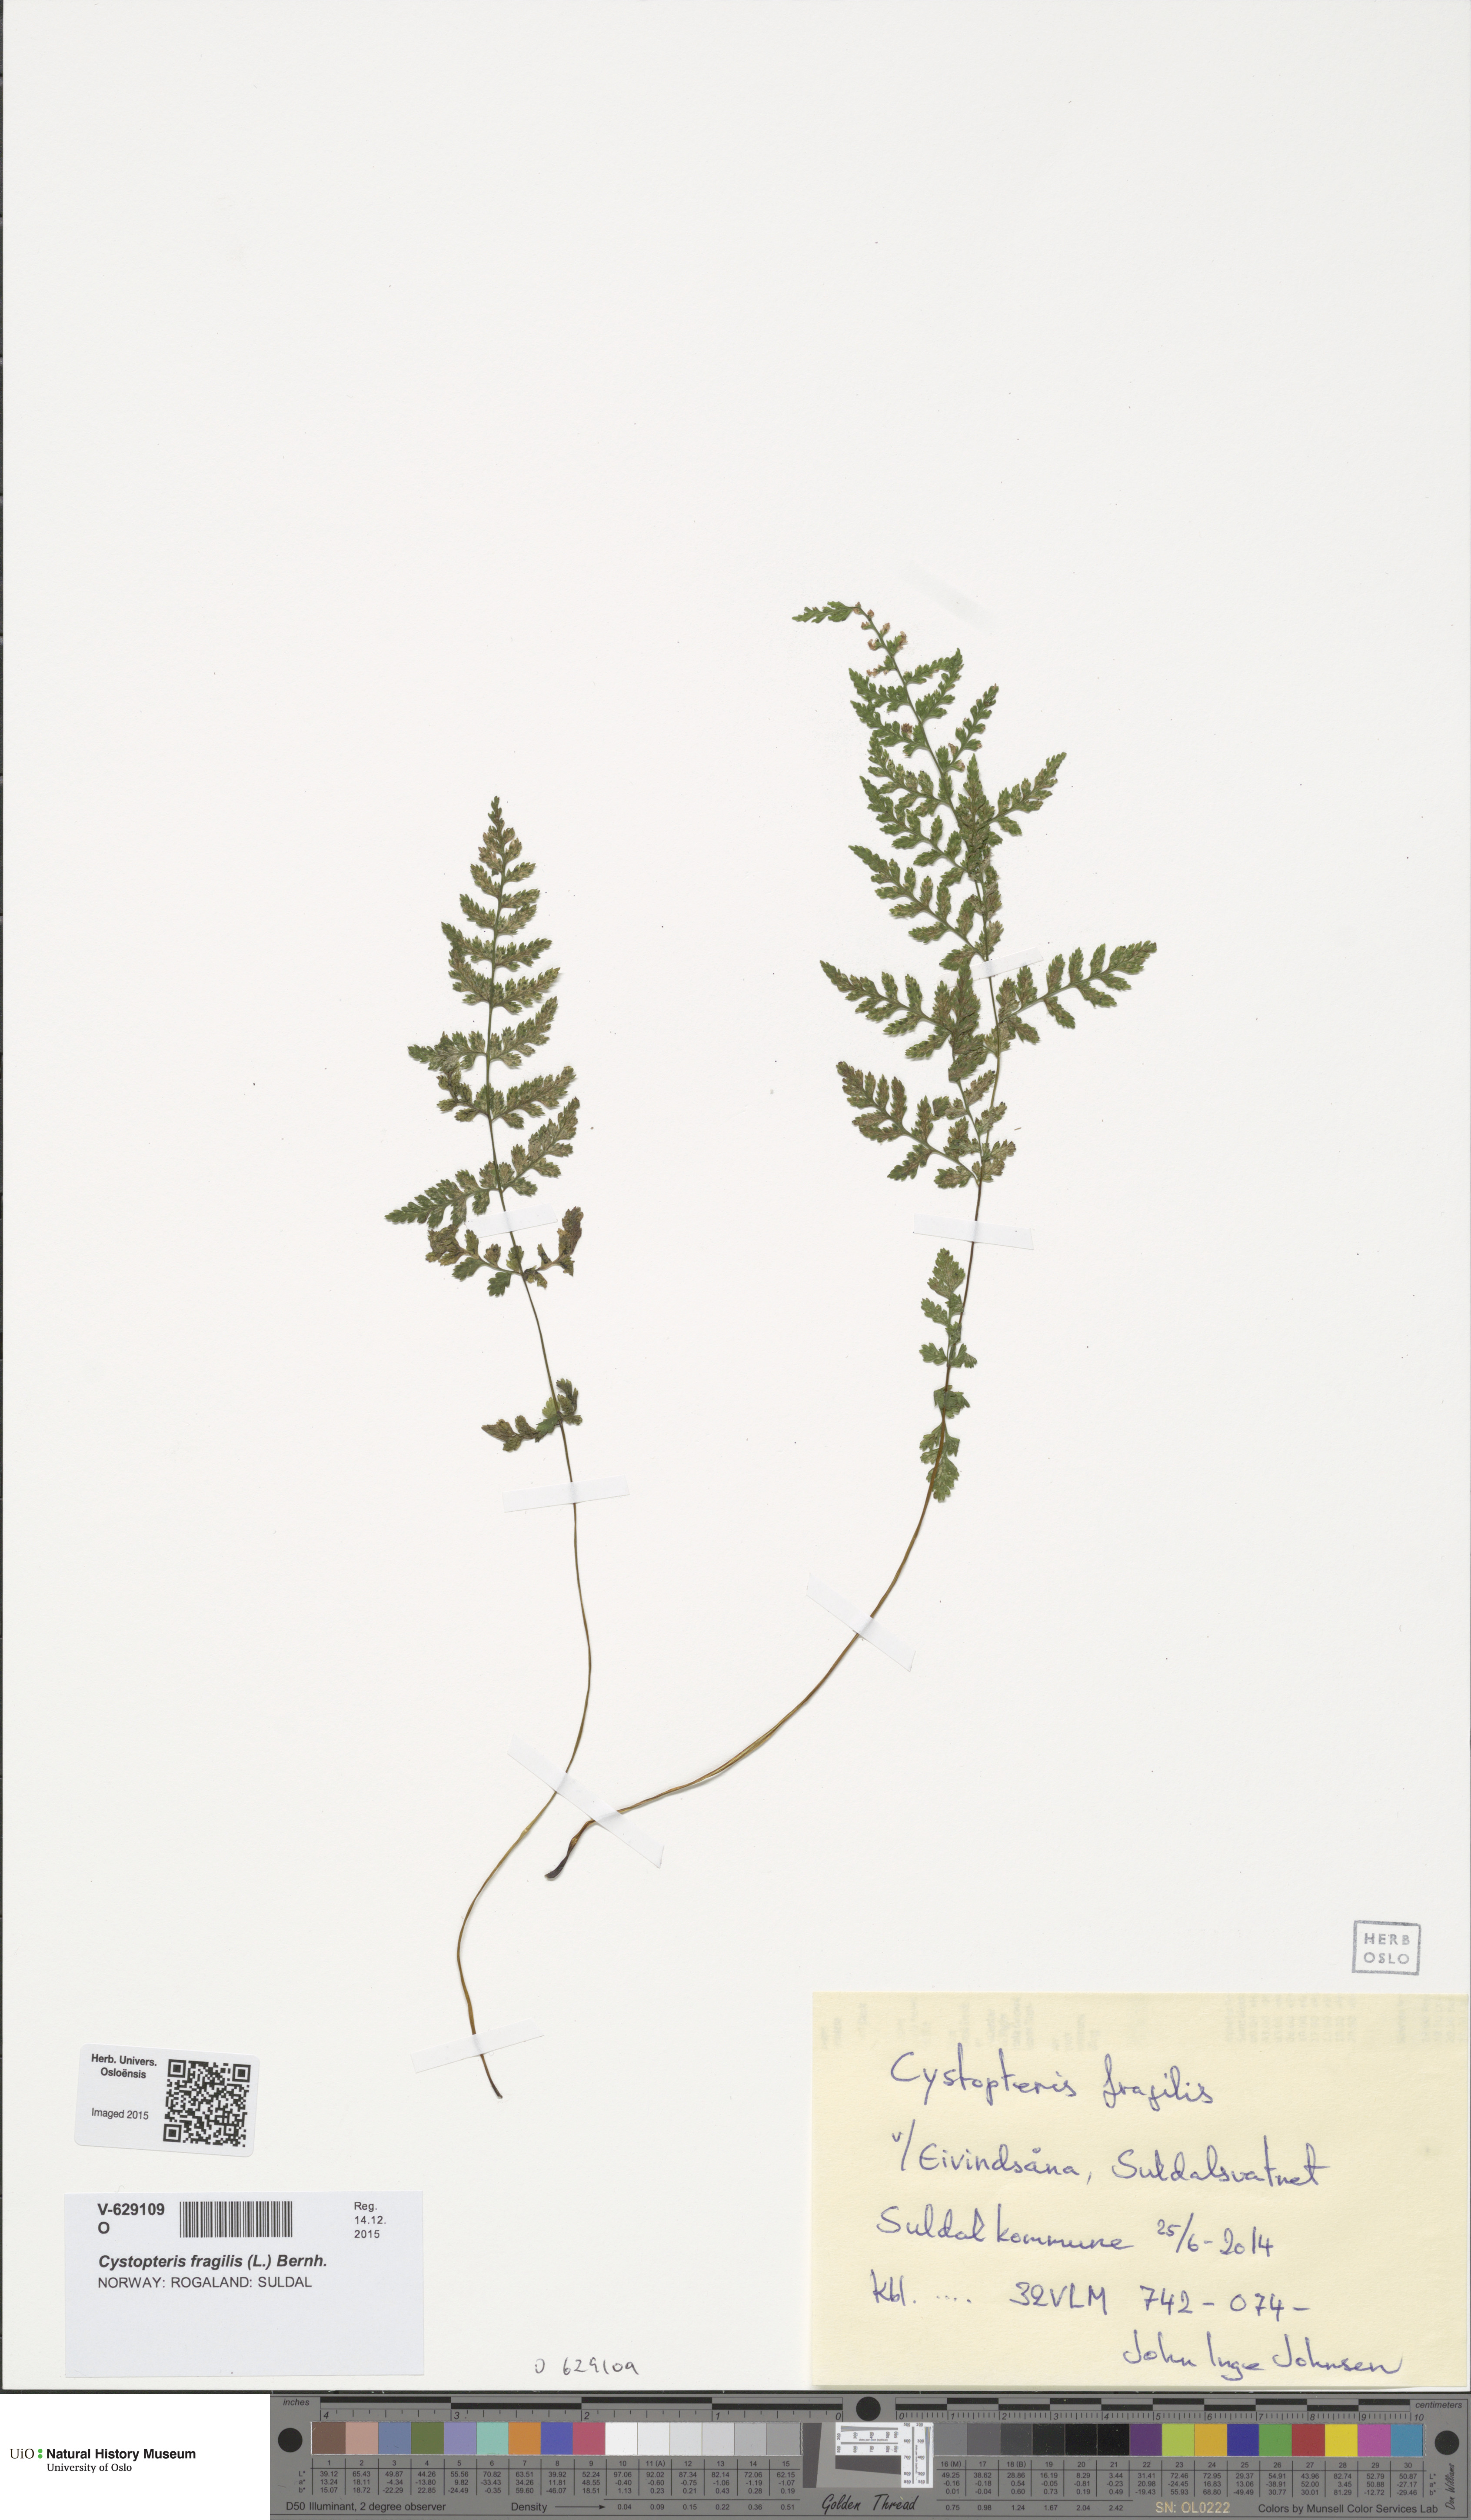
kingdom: Plantae
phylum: Tracheophyta
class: Polypodiopsida
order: Polypodiales
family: Cystopteridaceae
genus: Cystopteris
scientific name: Cystopteris fragilis
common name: Brittle bladder fern
